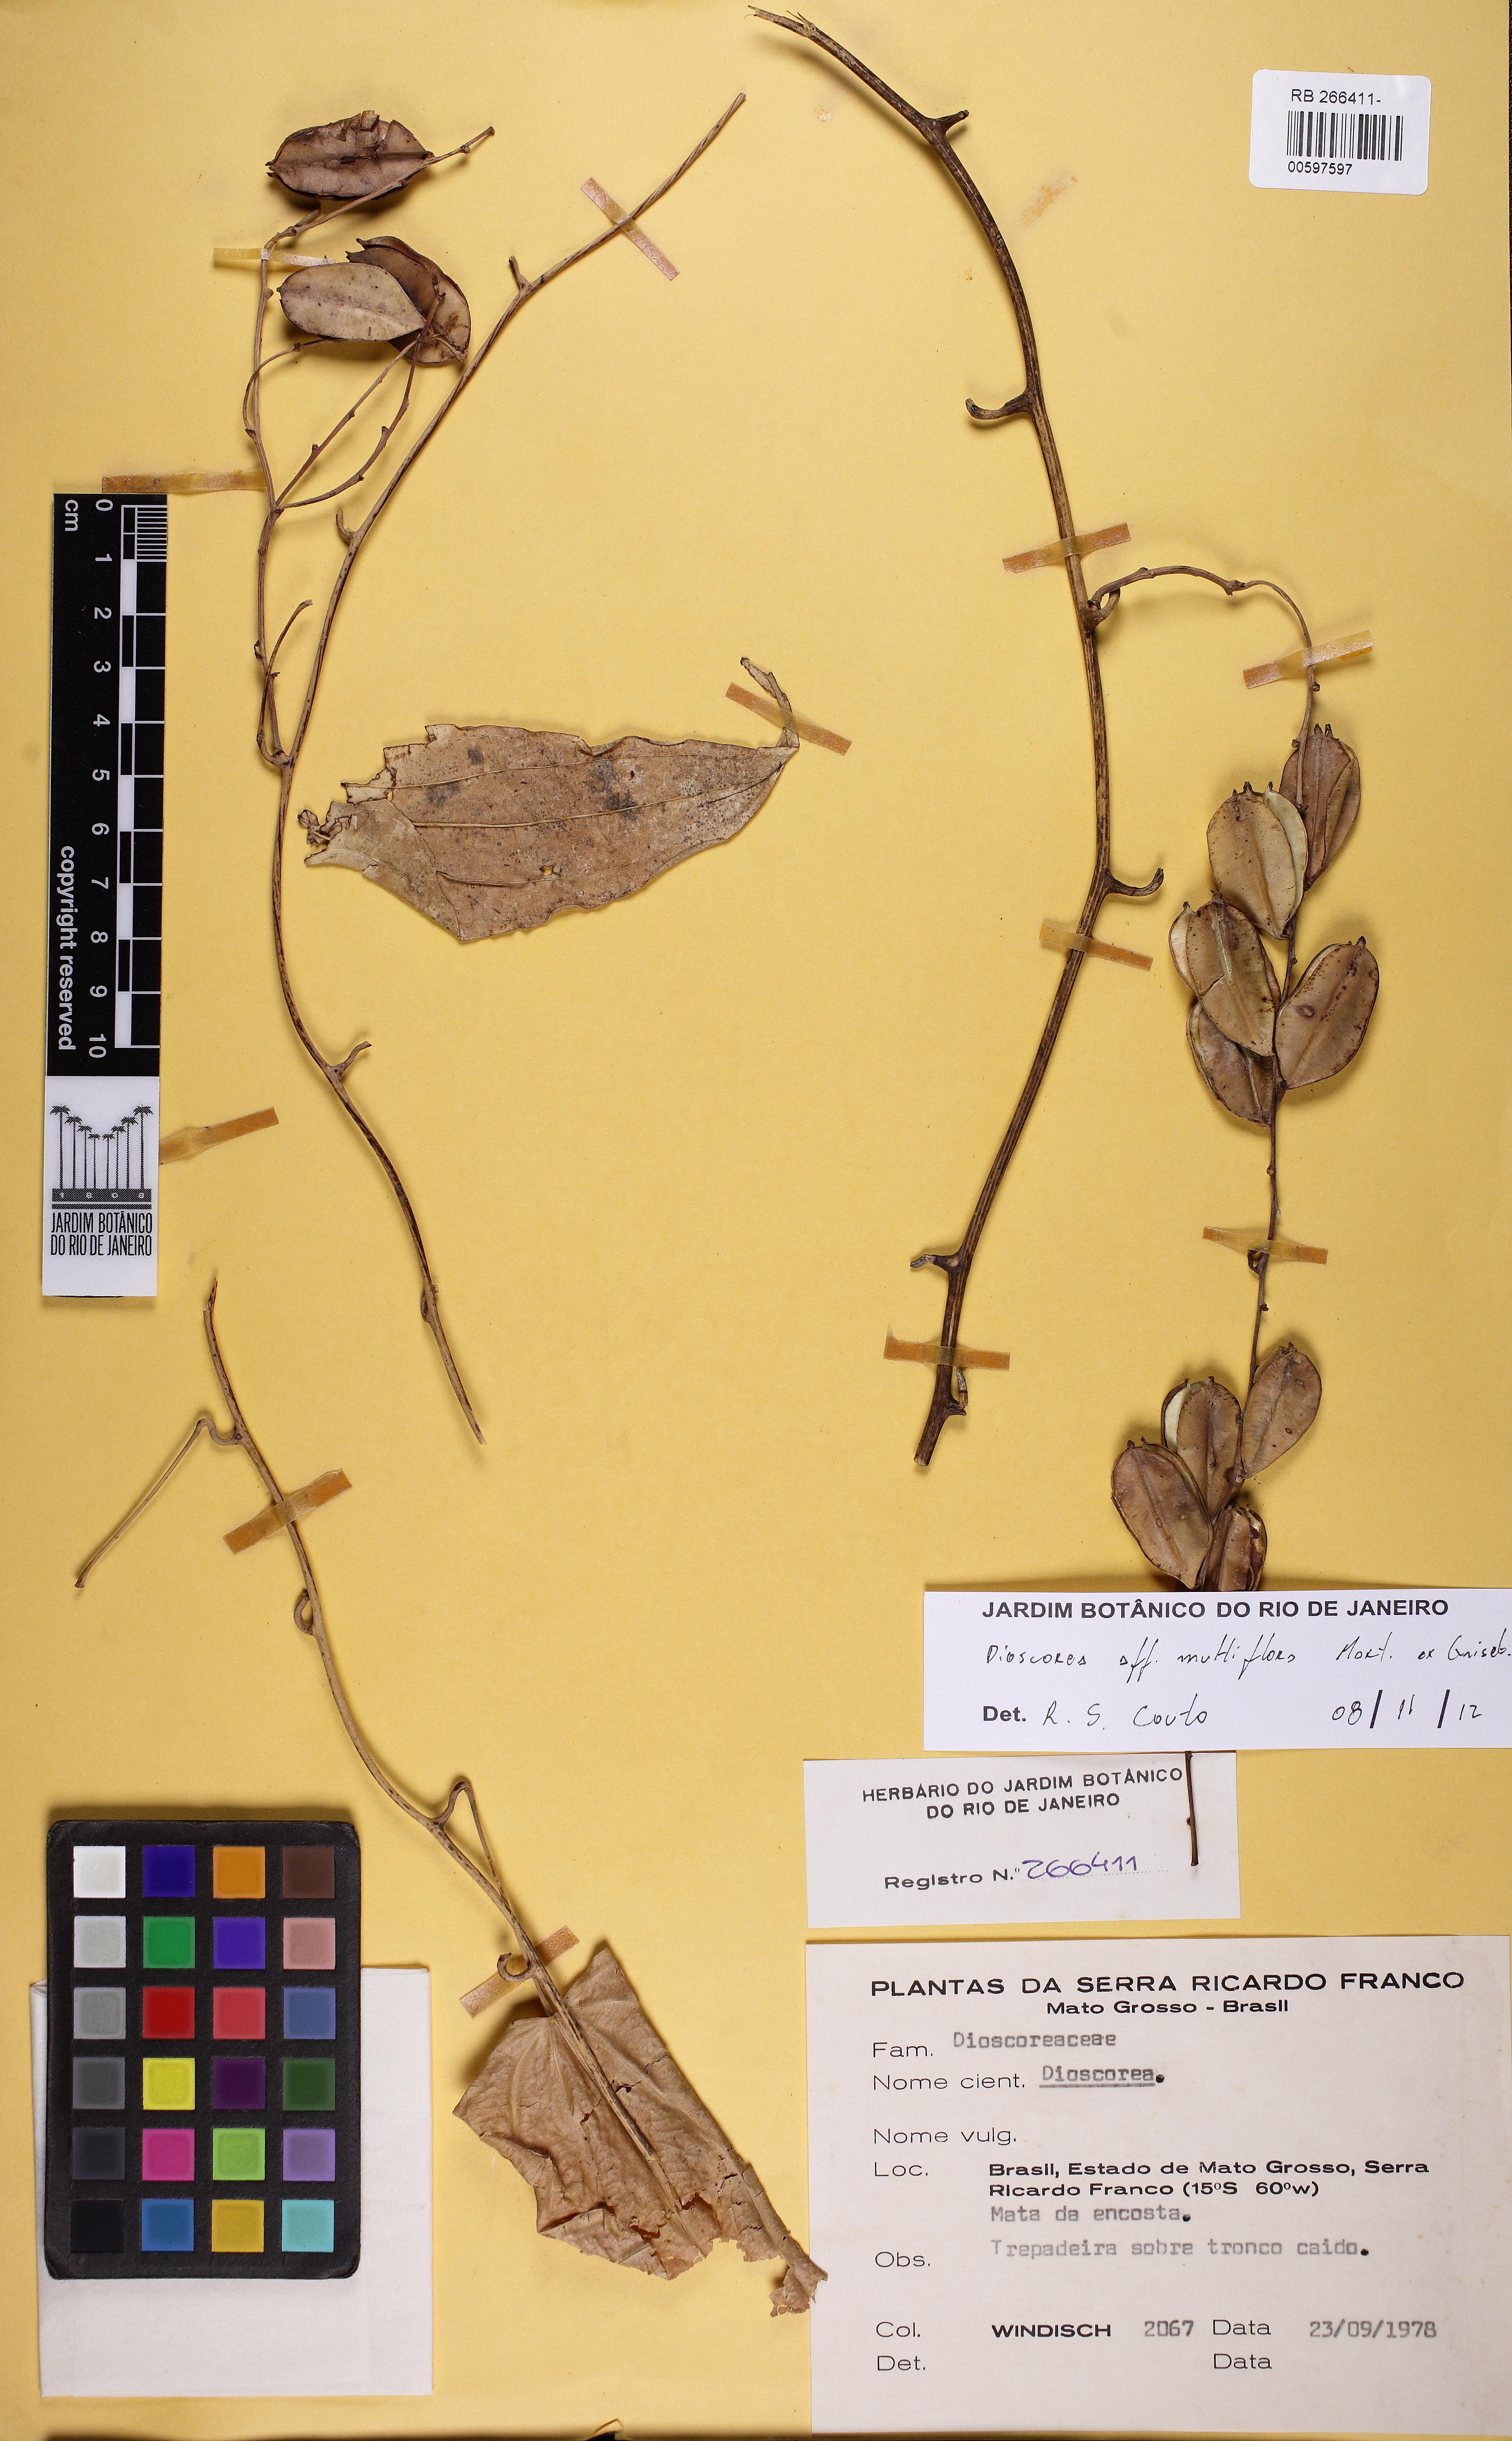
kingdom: Plantae
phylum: Tracheophyta
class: Liliopsida
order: Dioscoreales
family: Dioscoreaceae
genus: Dioscorea
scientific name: Dioscorea multiflora
